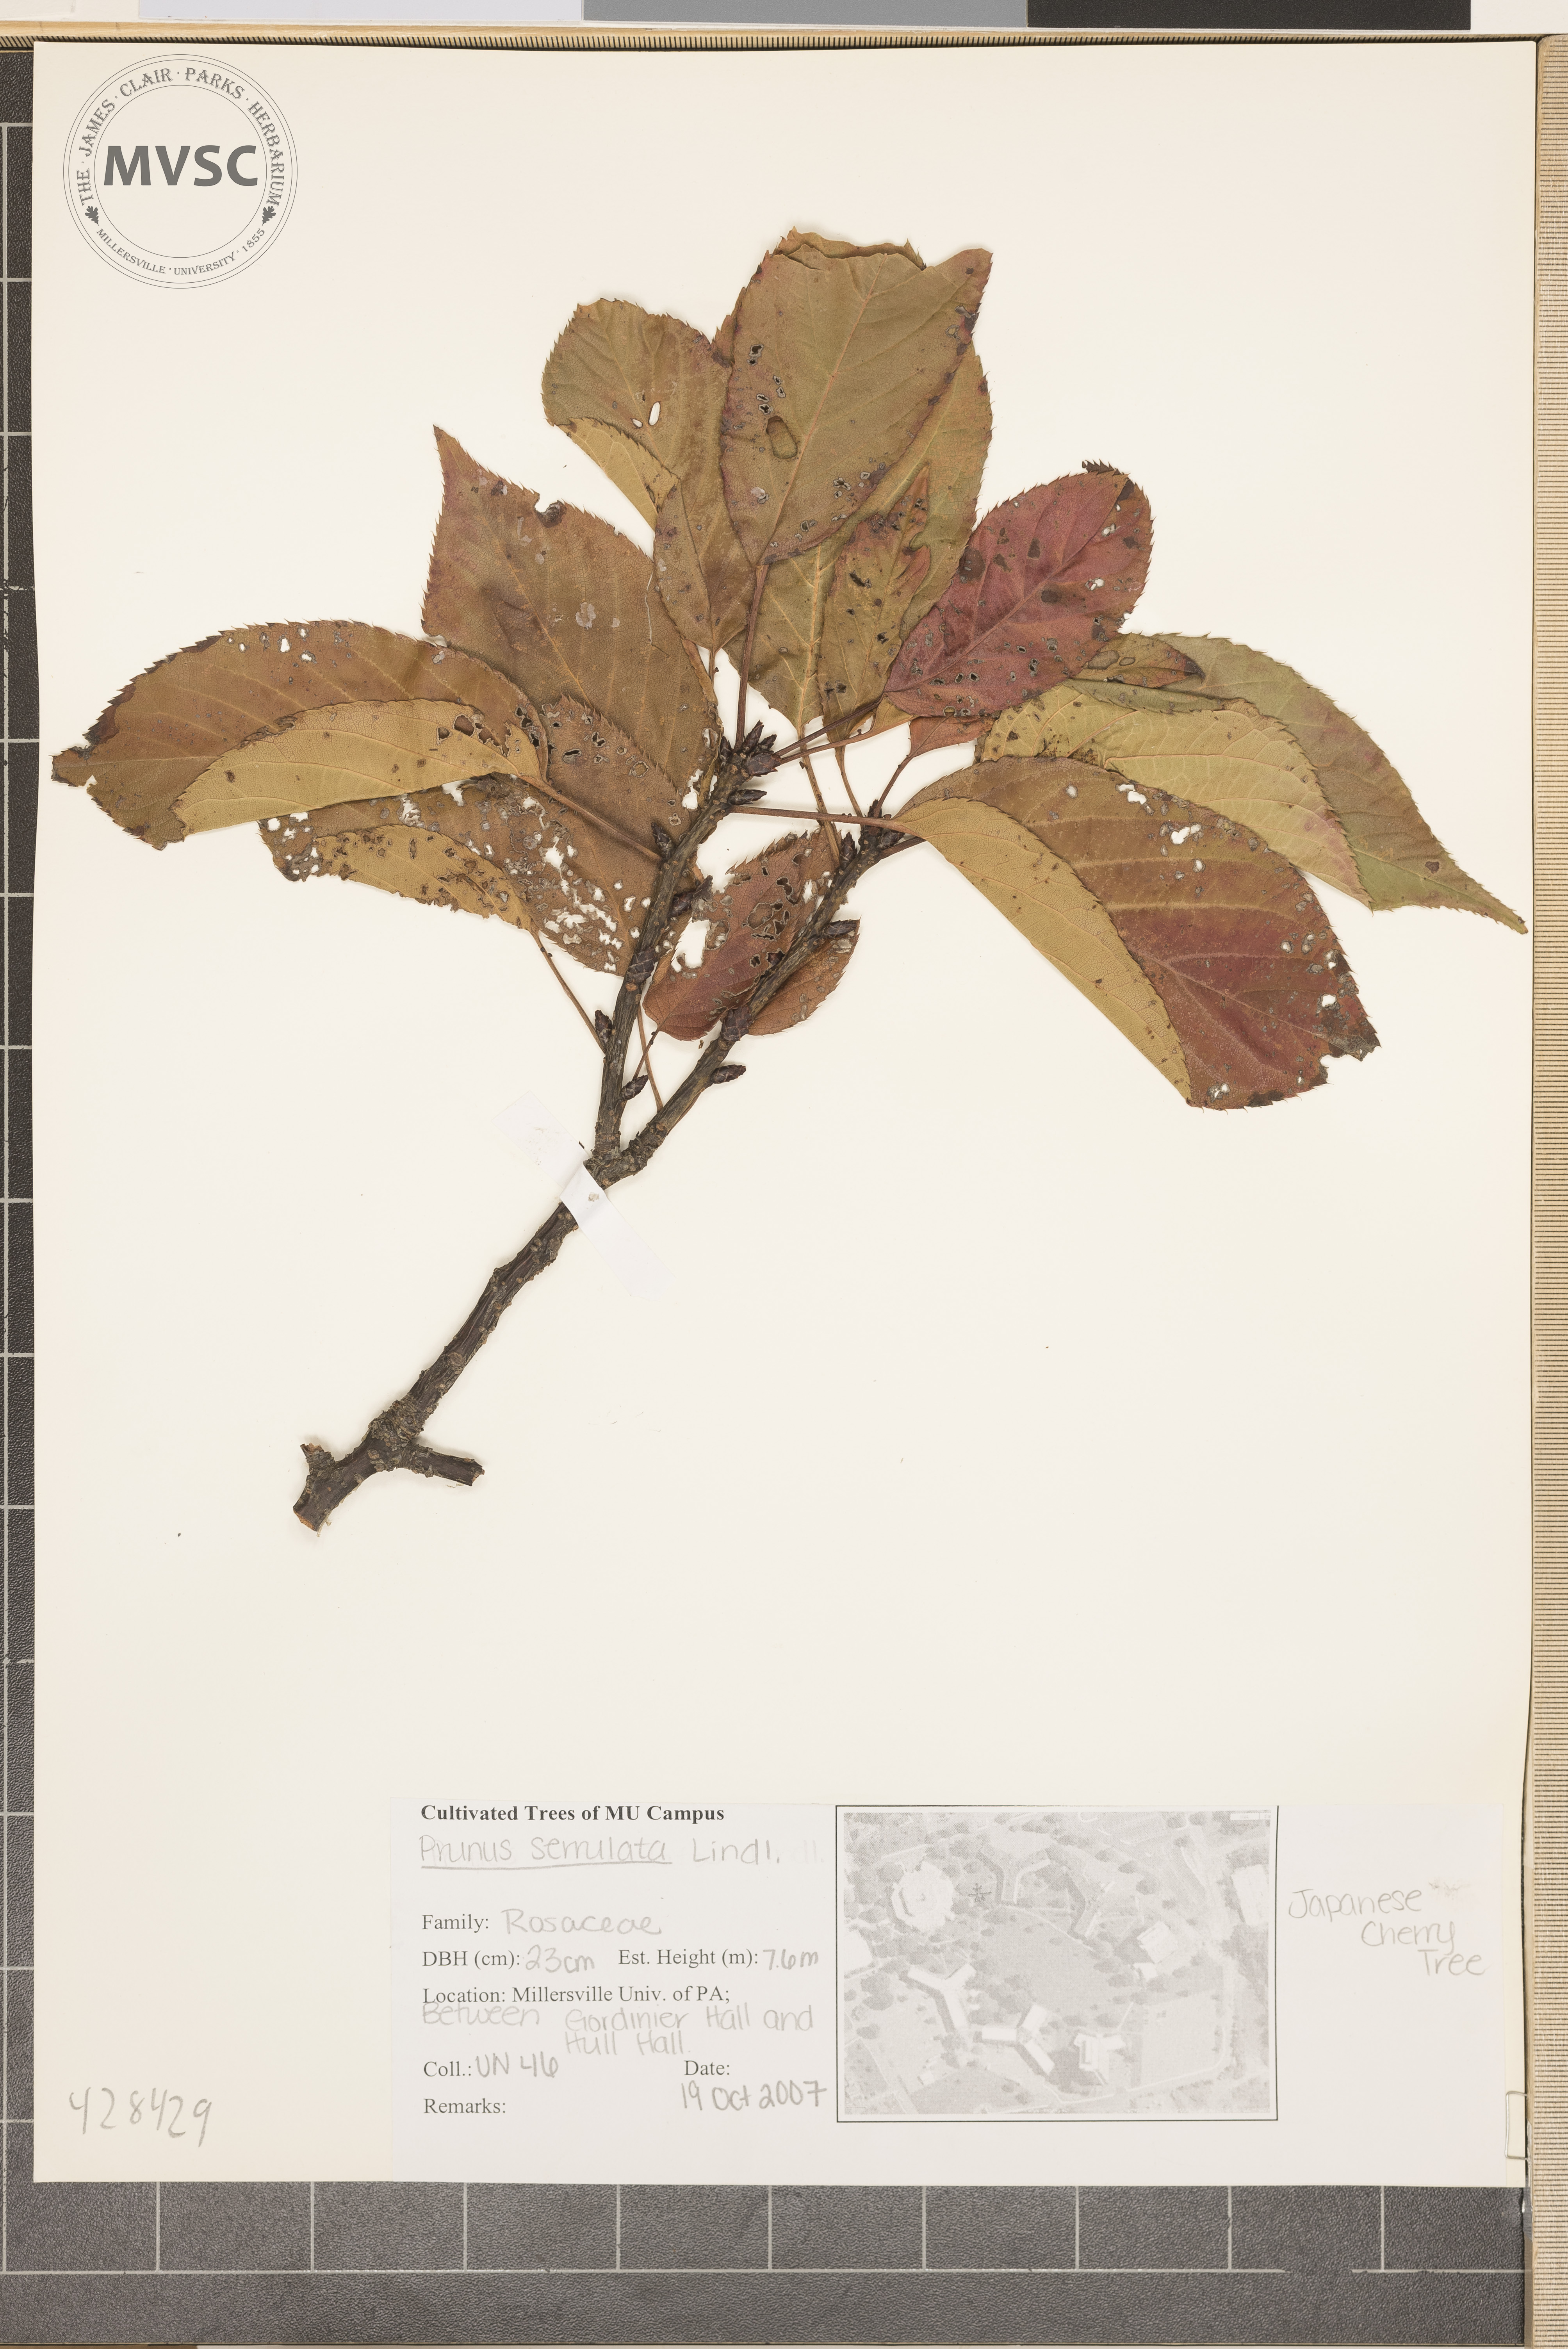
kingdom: Plantae
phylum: Tracheophyta
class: Magnoliopsida
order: Rosales
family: Rosaceae
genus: Prunus
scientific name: Prunus serrulata
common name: Oriental cherry
